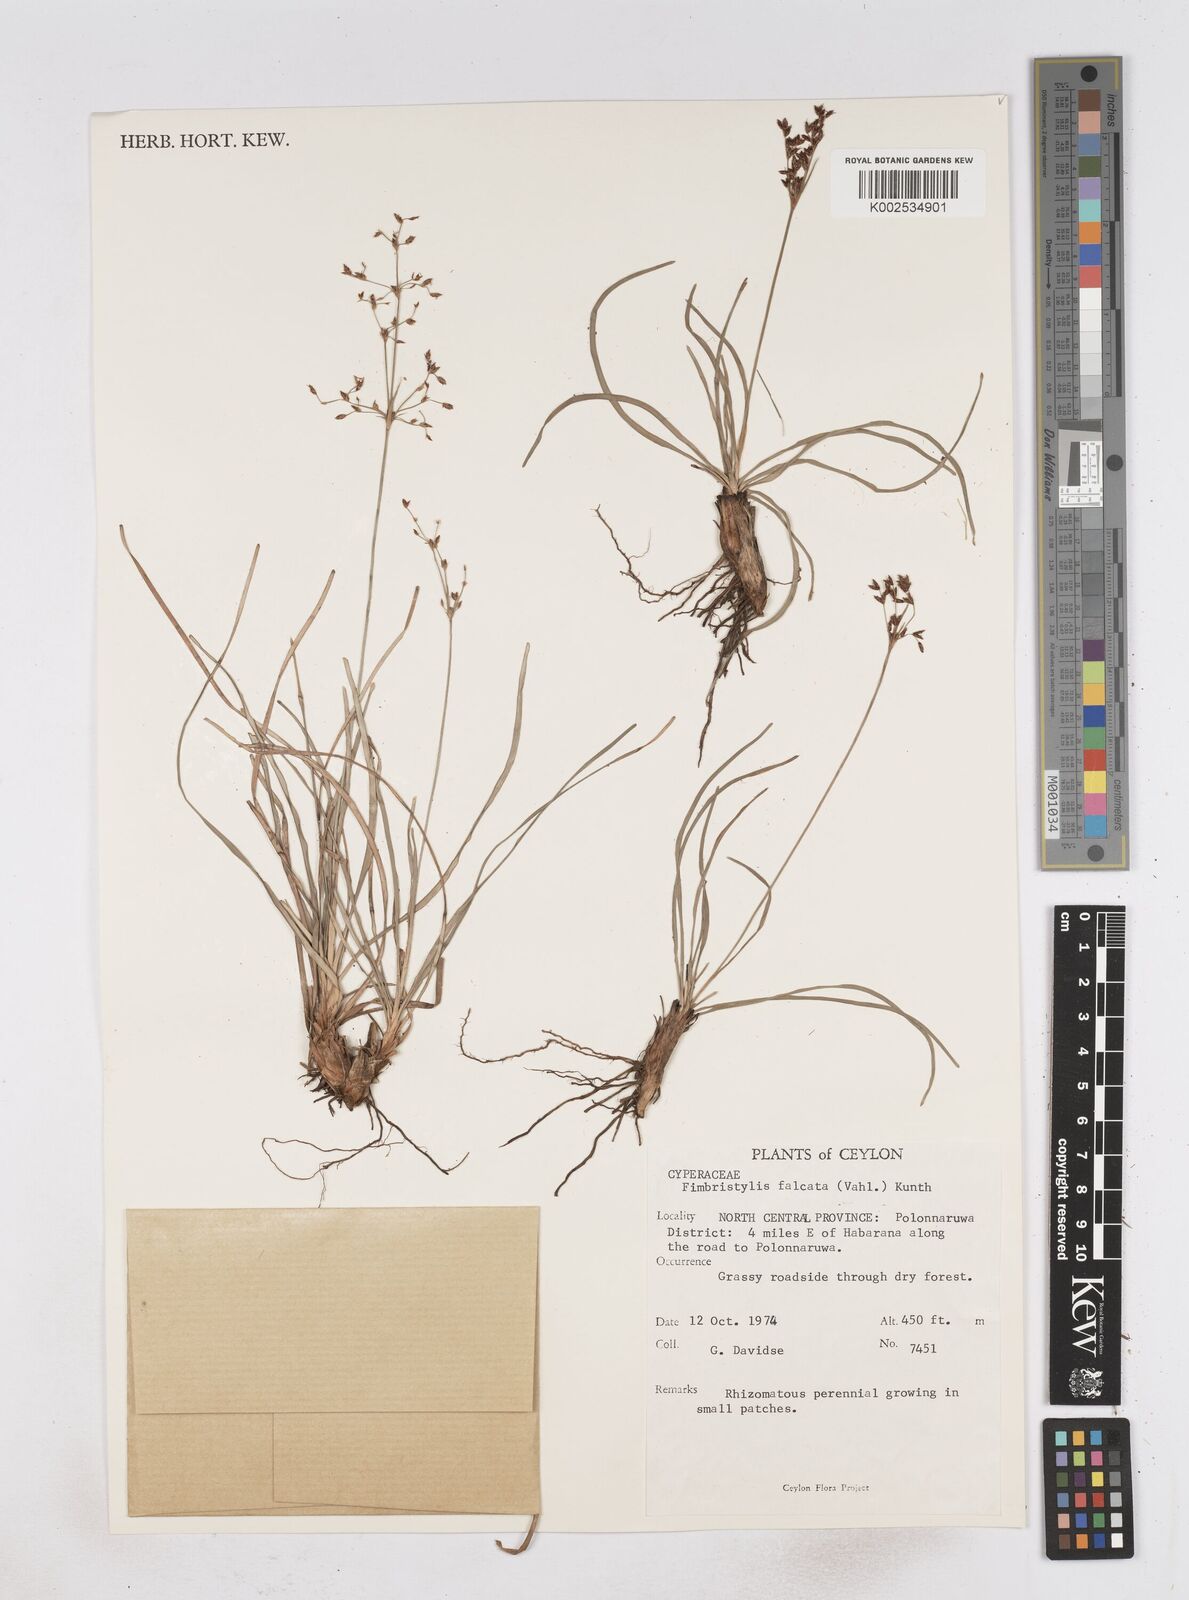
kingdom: Plantae
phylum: Tracheophyta
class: Liliopsida
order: Poales
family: Cyperaceae
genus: Fimbristylis
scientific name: Fimbristylis falcata
